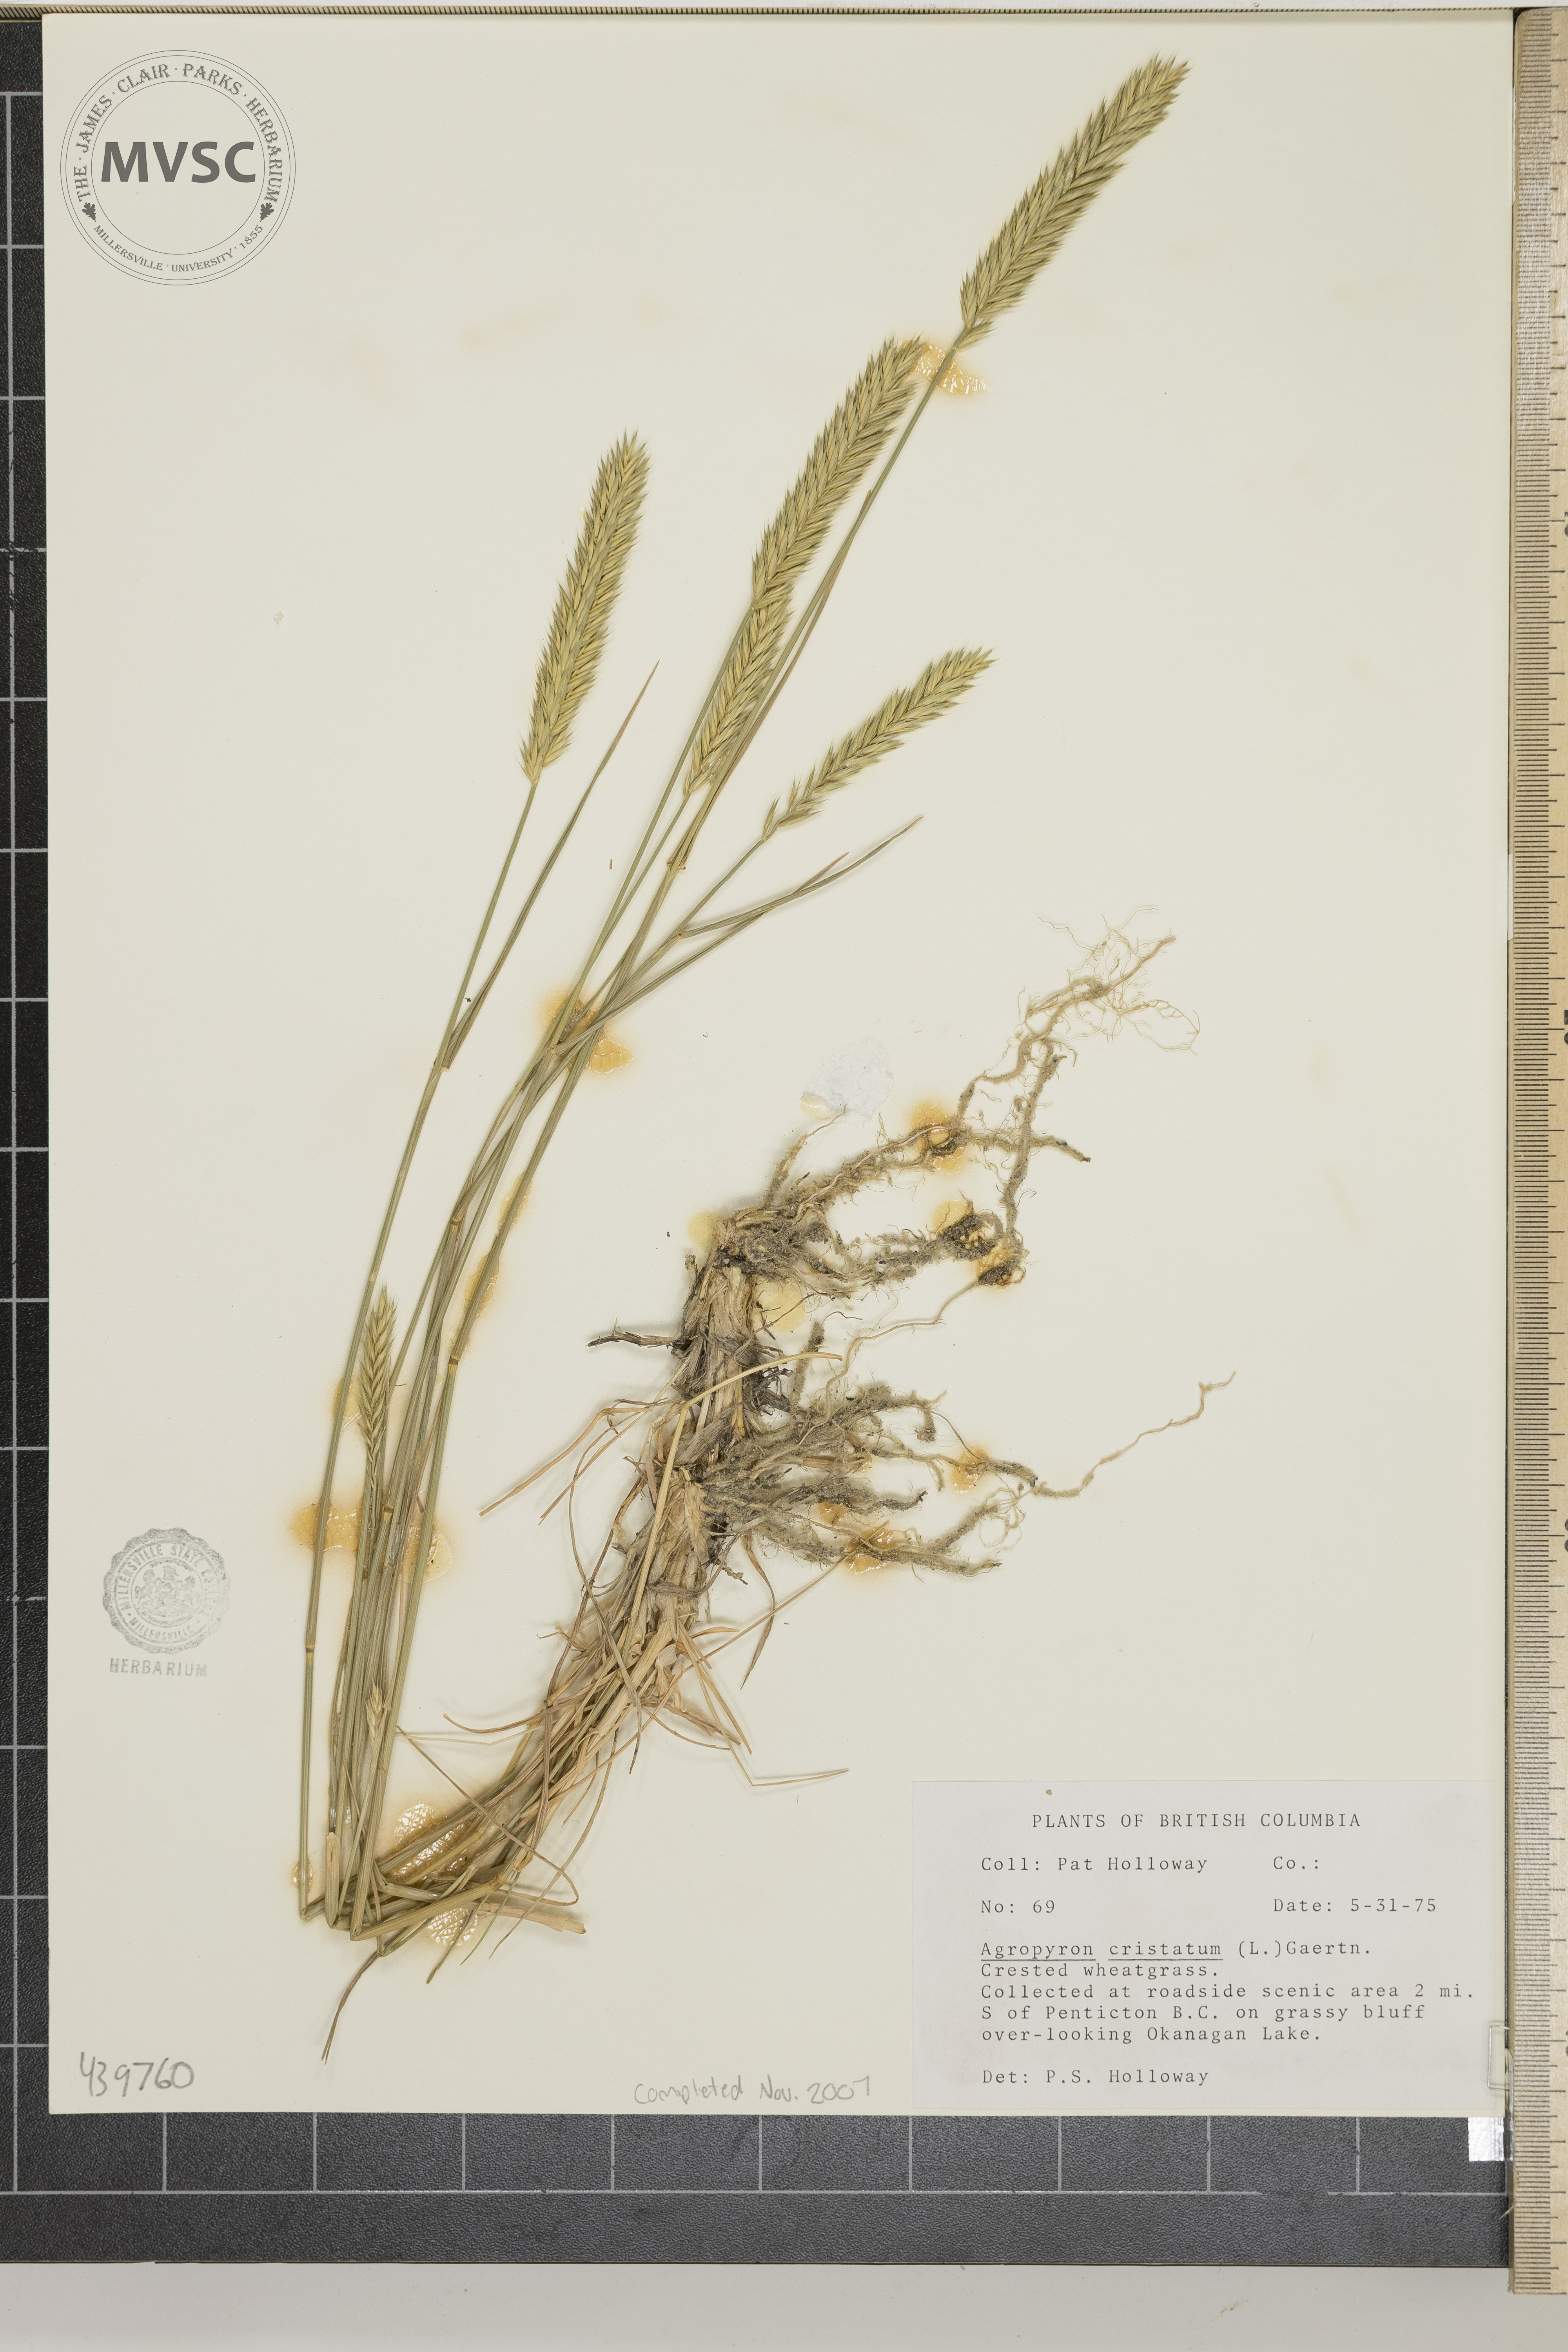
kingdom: Plantae
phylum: Tracheophyta
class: Liliopsida
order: Poales
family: Poaceae
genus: Agropyron
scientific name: Agropyron cristatum
